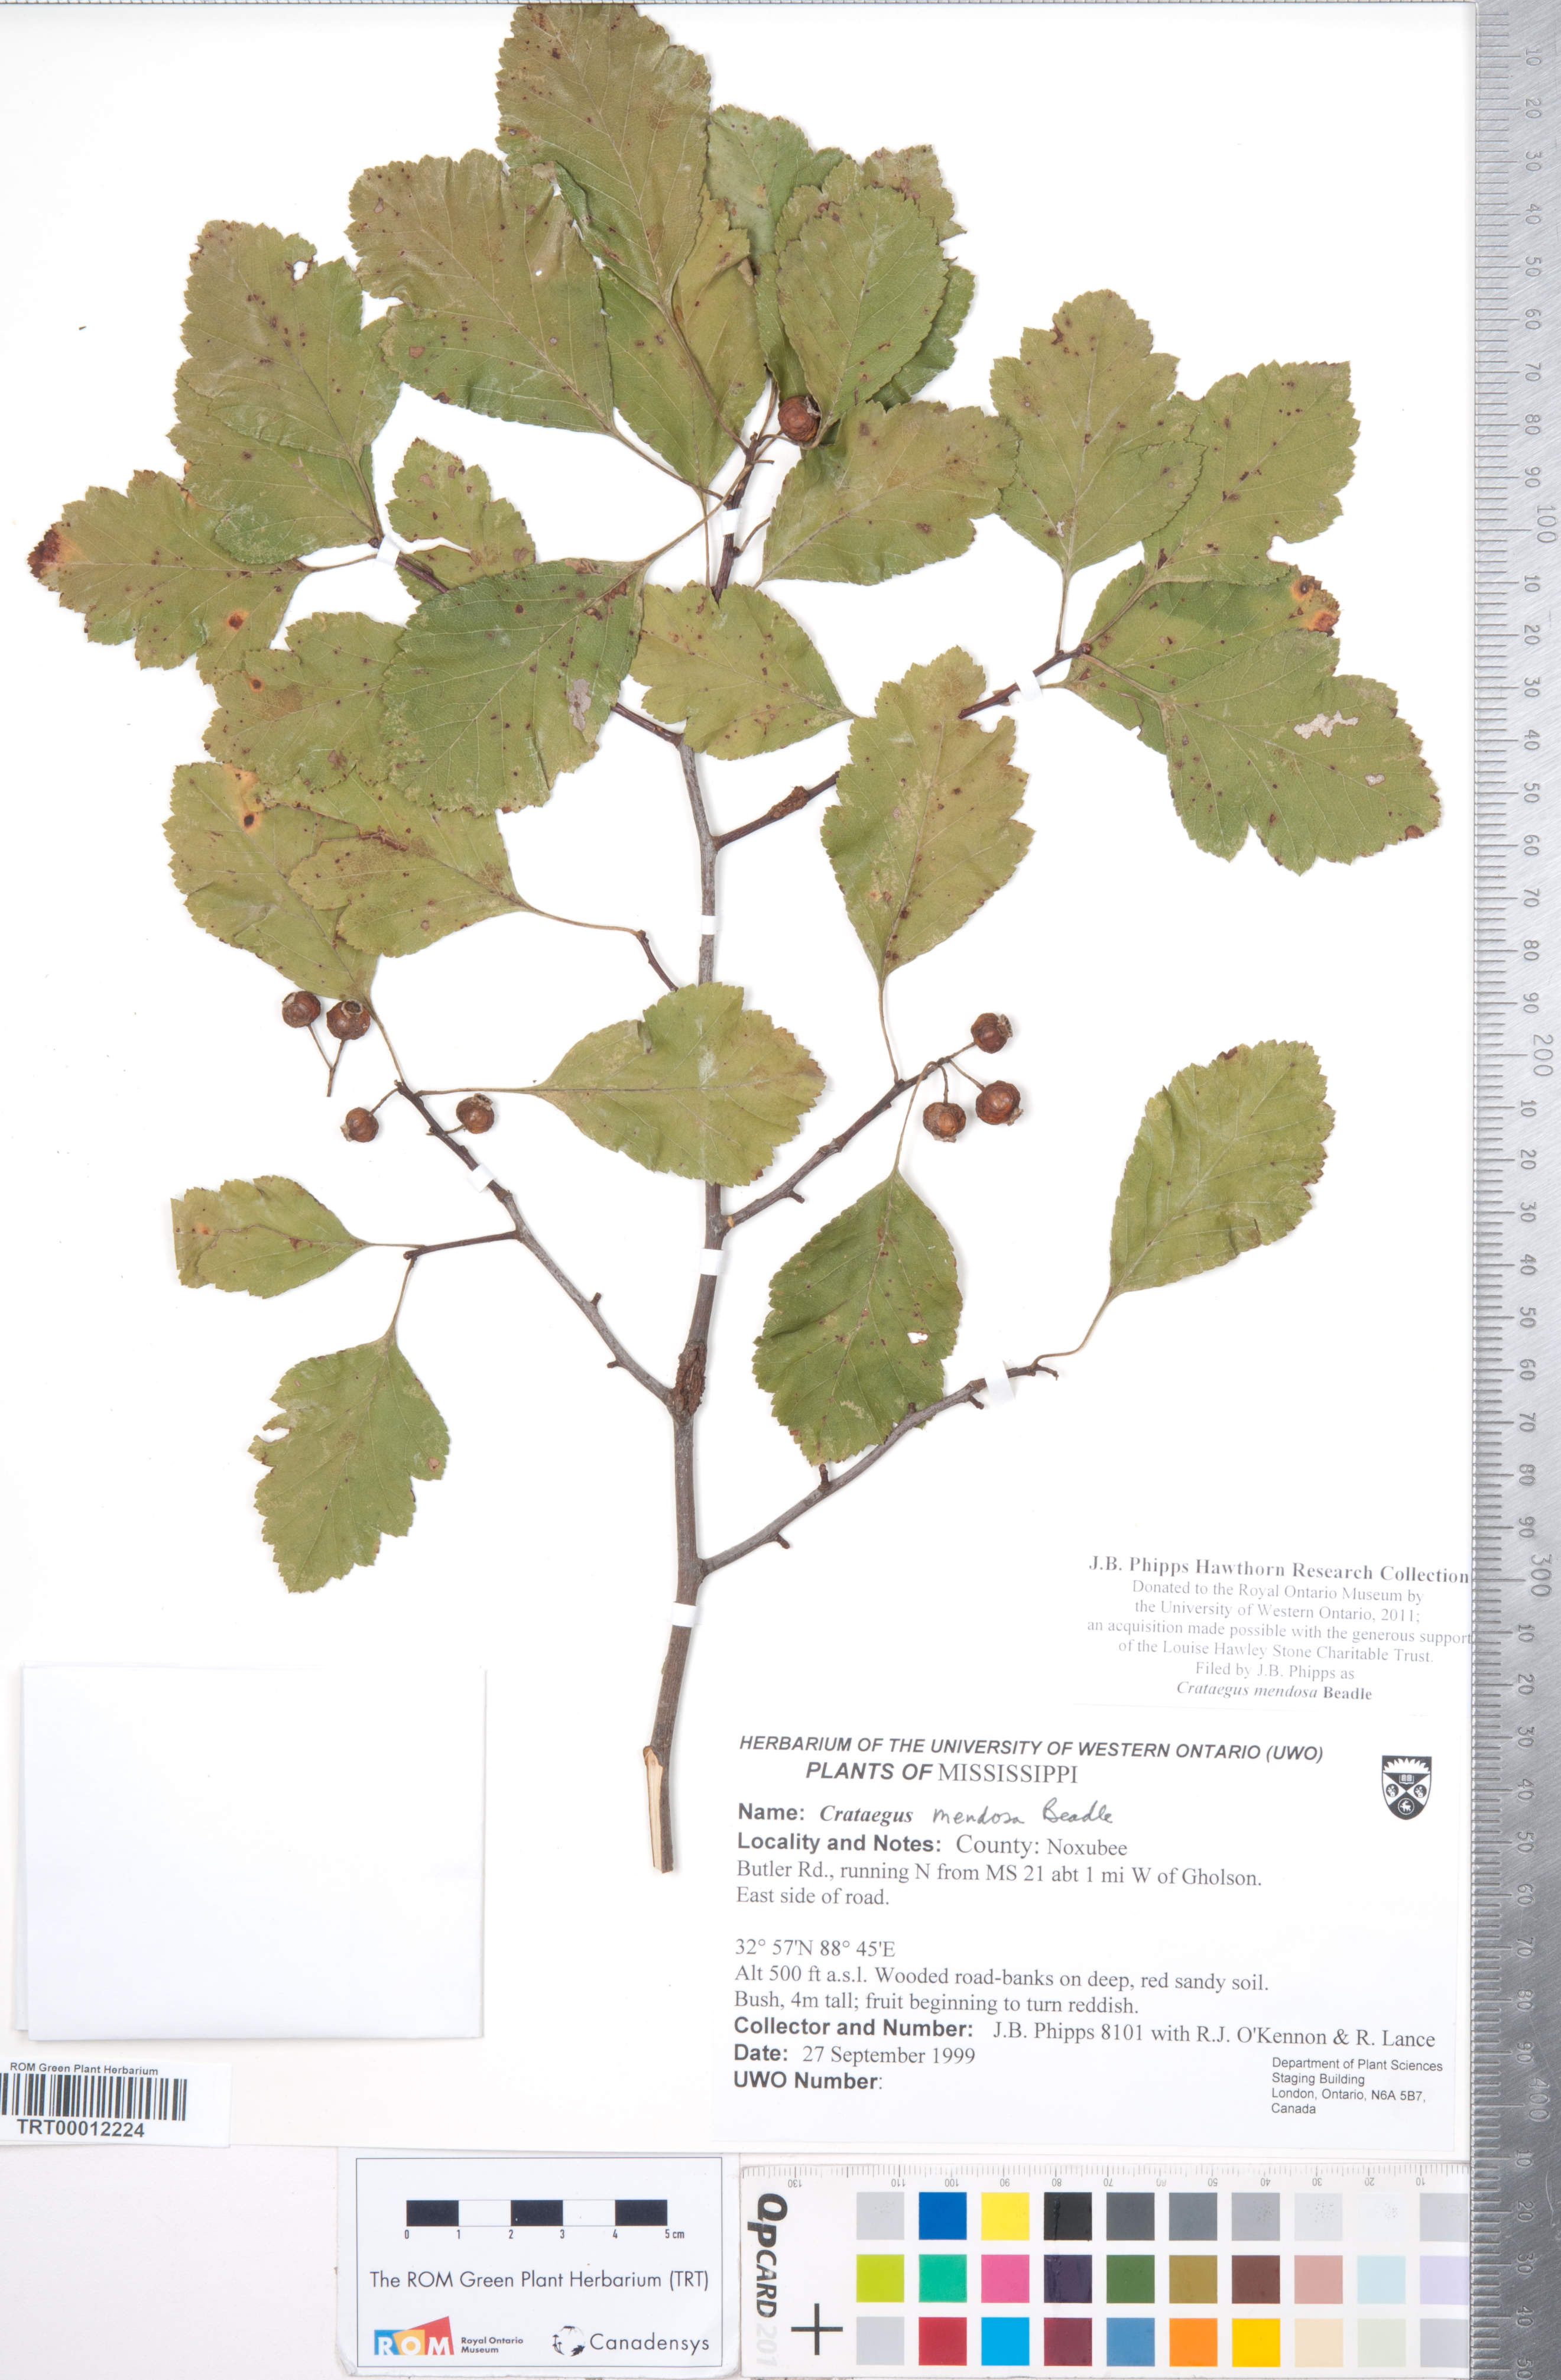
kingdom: Plantae
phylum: Tracheophyta
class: Magnoliopsida
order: Rosales
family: Rosaceae
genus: Crataegus
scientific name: Crataegus pulcherrima
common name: Beautiful hawthorn
